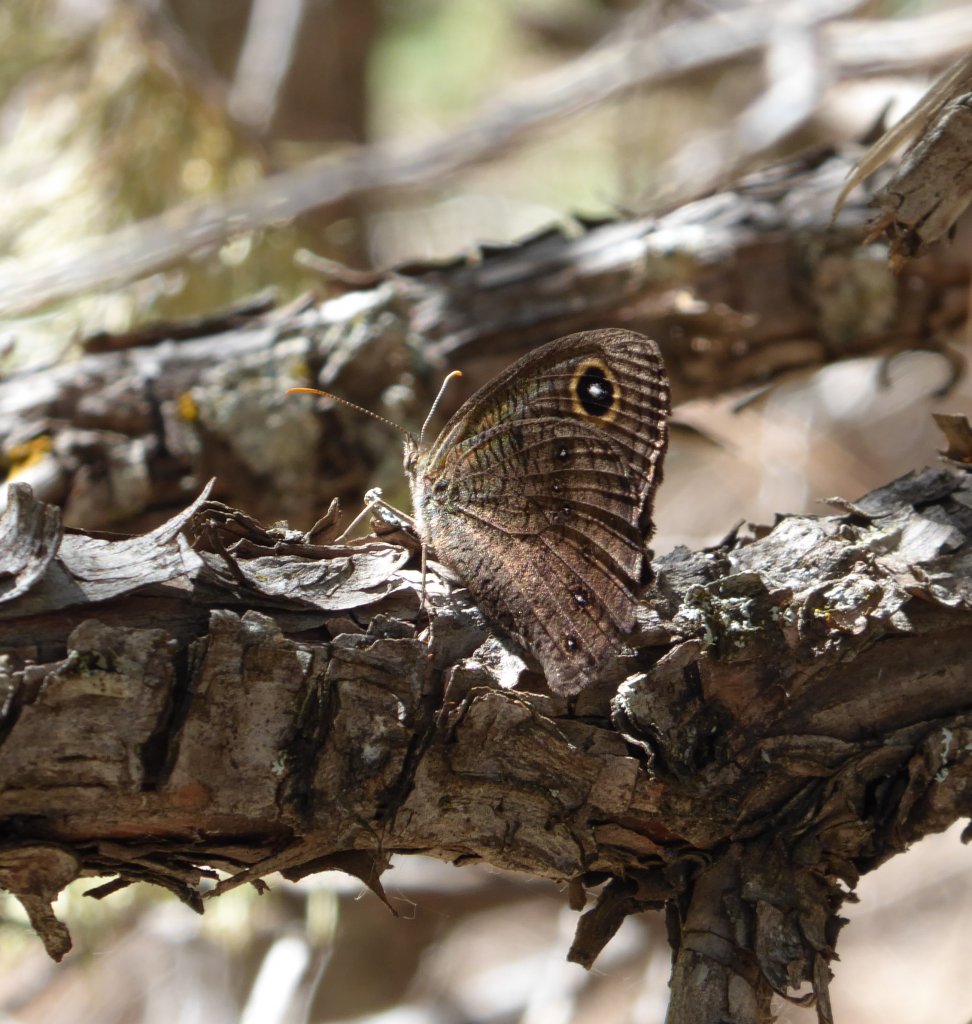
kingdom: Animalia
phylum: Arthropoda
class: Insecta
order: Lepidoptera
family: Nymphalidae
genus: Cercyonis
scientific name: Cercyonis pegala
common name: Common Wood-Nymph
